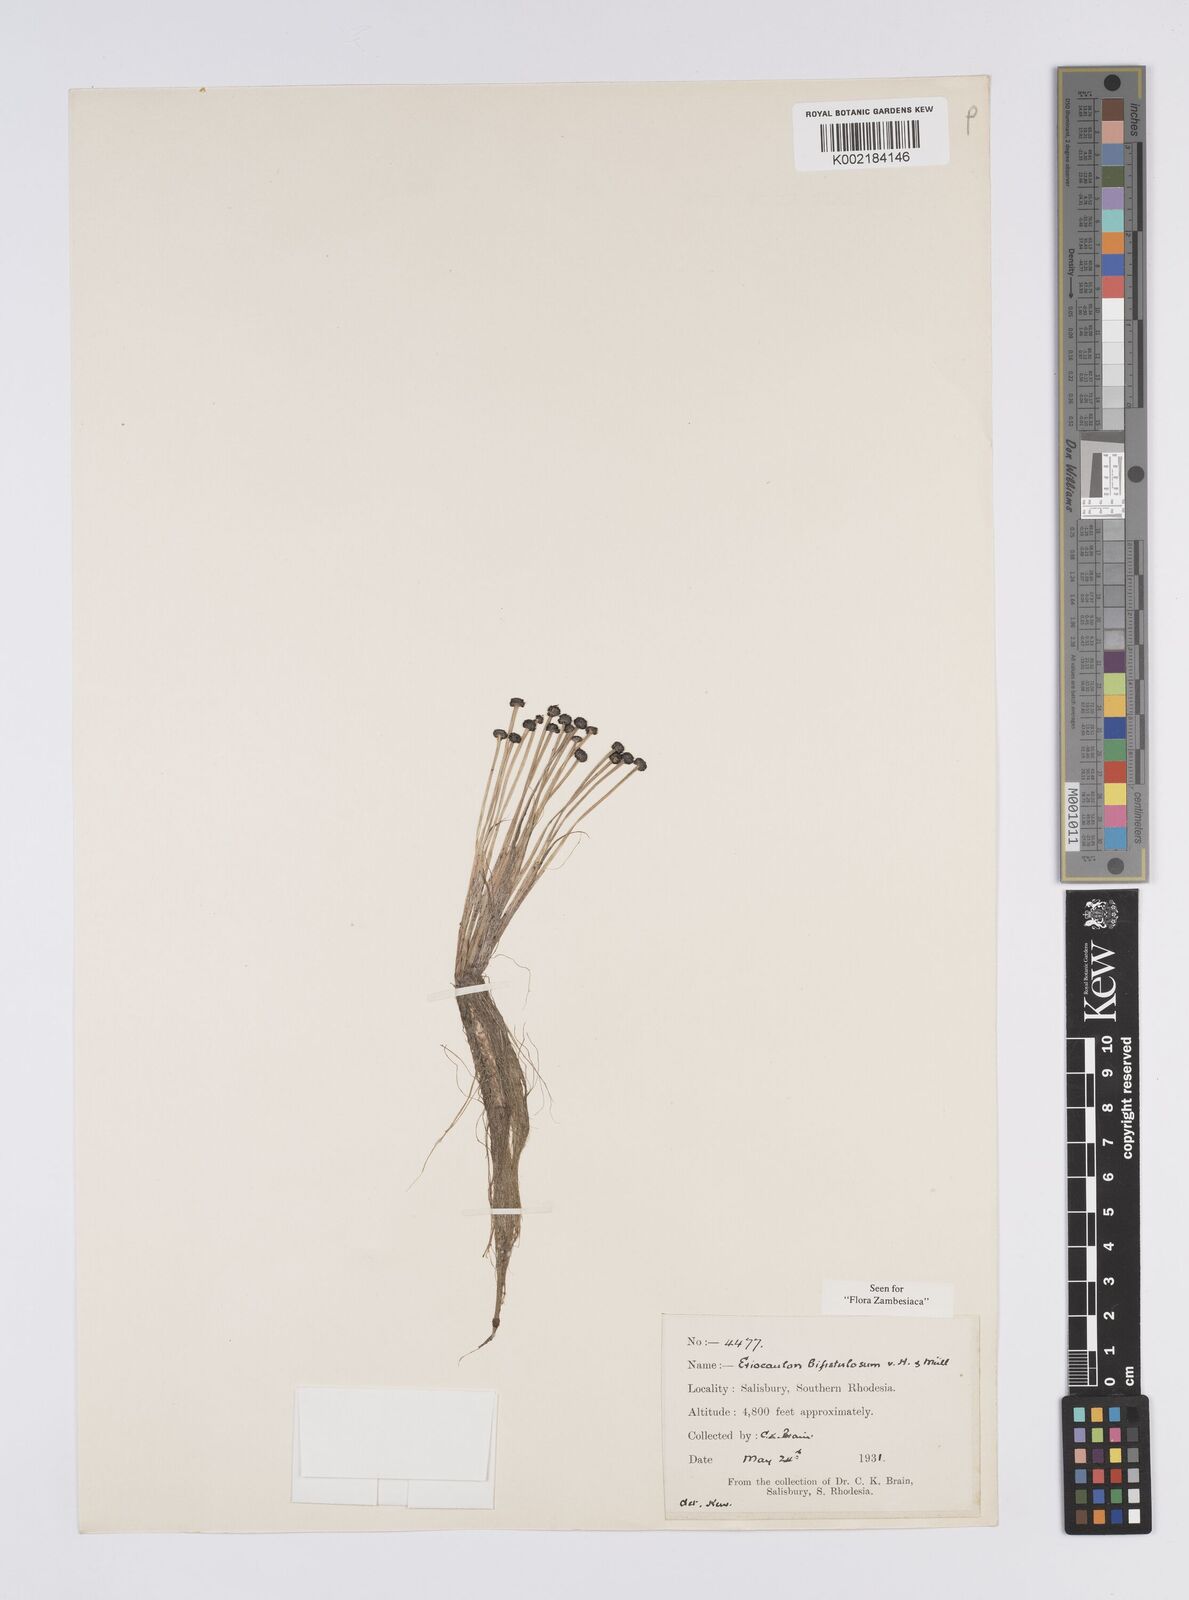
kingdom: Plantae
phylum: Tracheophyta
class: Liliopsida
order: Poales
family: Eriocaulaceae
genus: Eriocaulon
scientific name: Eriocaulon setaceum
